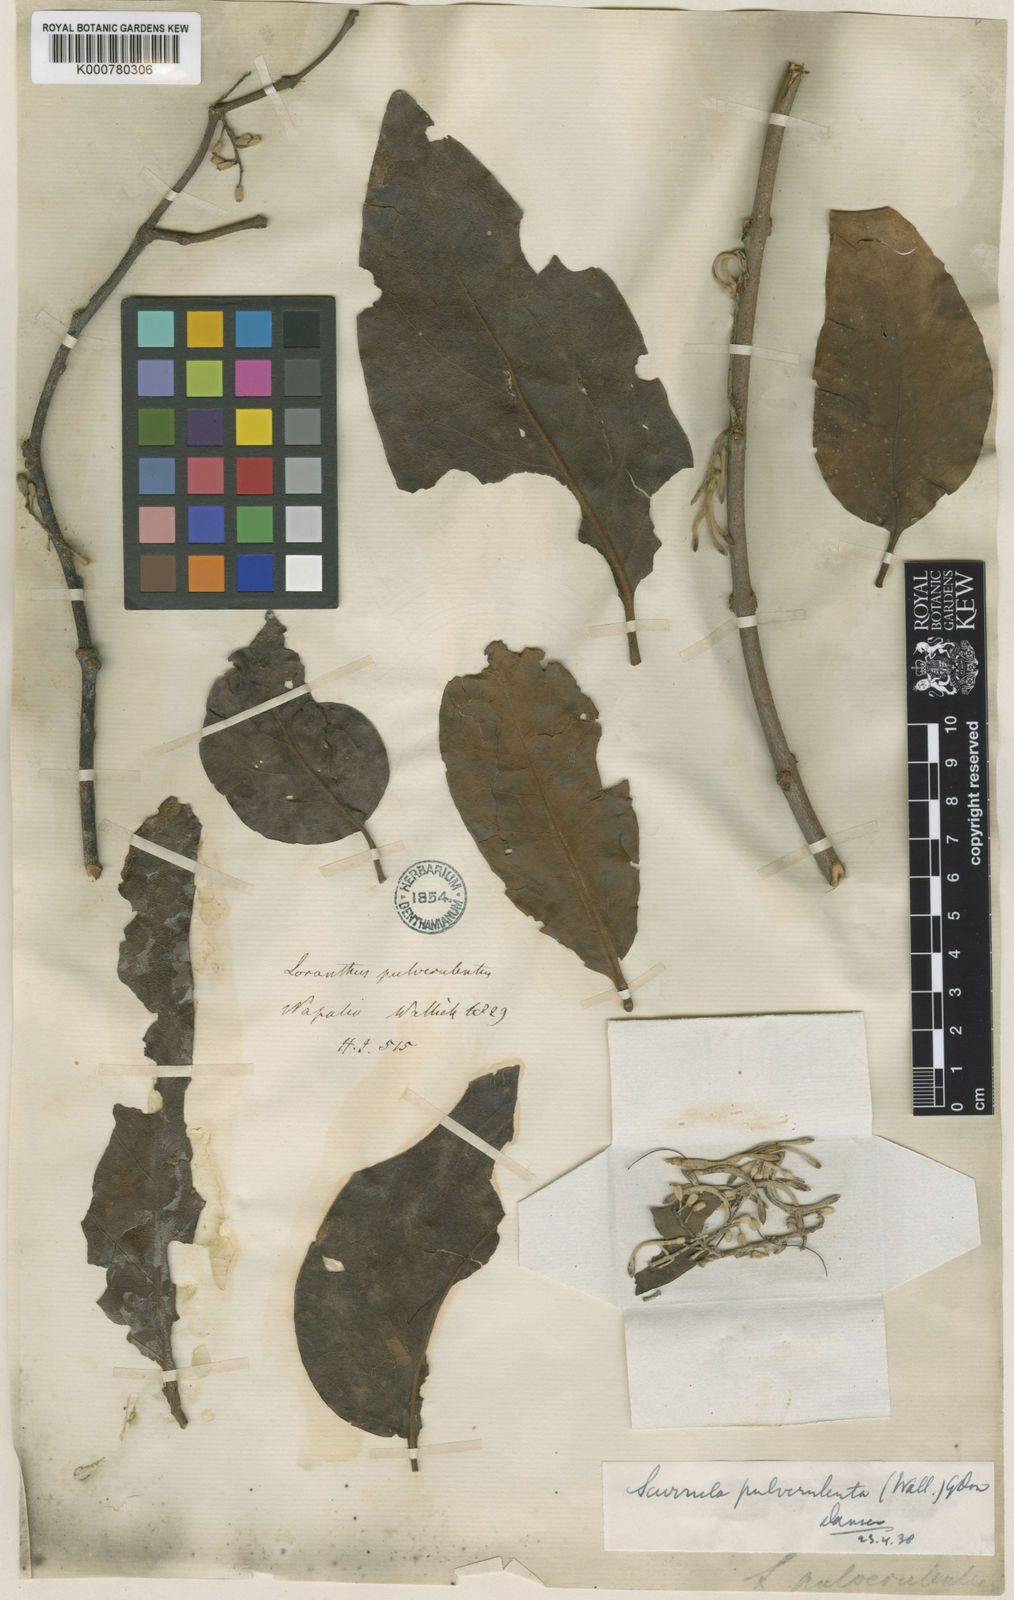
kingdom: Plantae
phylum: Tracheophyta
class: Magnoliopsida
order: Santalales
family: Loranthaceae
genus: Scurrula
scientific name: Scurrula pulverulenta
